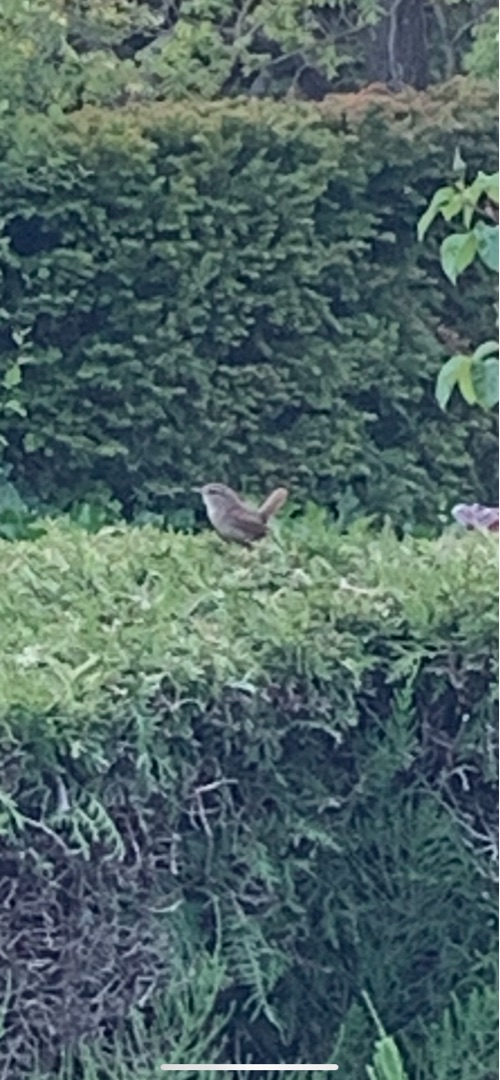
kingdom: Animalia
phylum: Chordata
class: Aves
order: Passeriformes
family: Troglodytidae
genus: Troglodytes
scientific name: Troglodytes troglodytes
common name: Gærdesmutte
